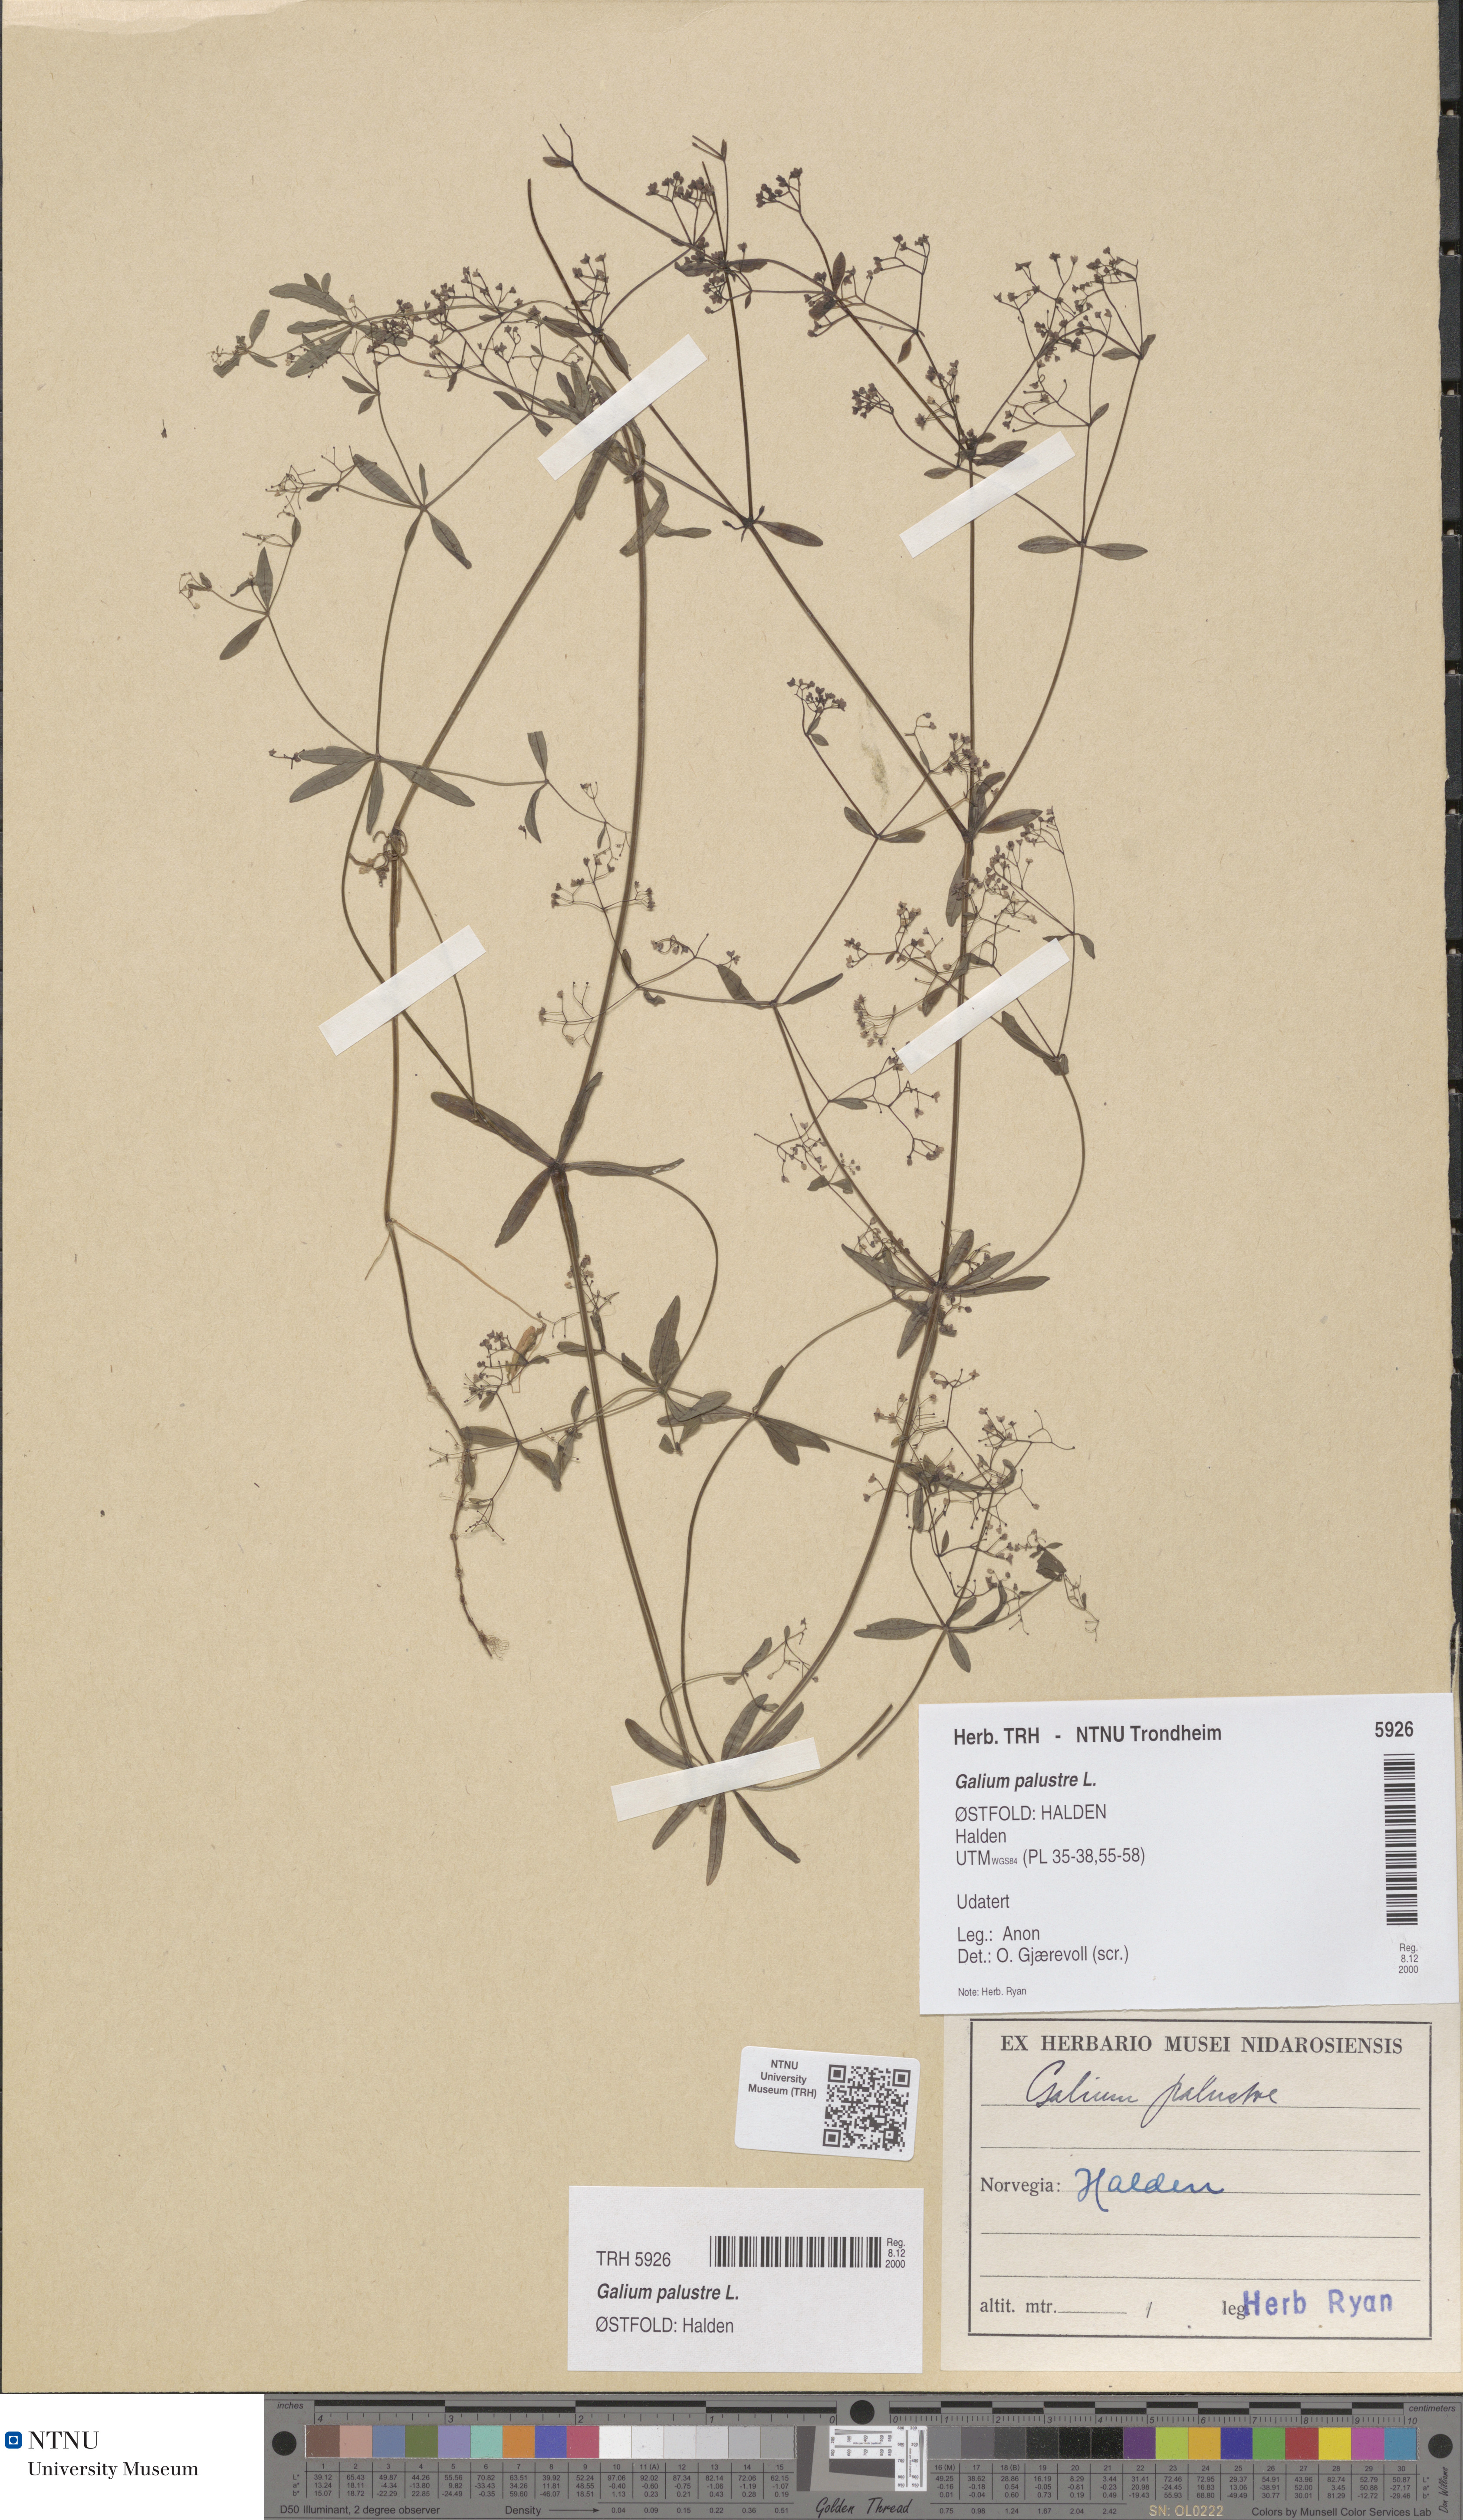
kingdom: Plantae
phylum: Tracheophyta
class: Magnoliopsida
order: Gentianales
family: Rubiaceae
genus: Galium
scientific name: Galium palustre
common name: Common marsh-bedstraw
